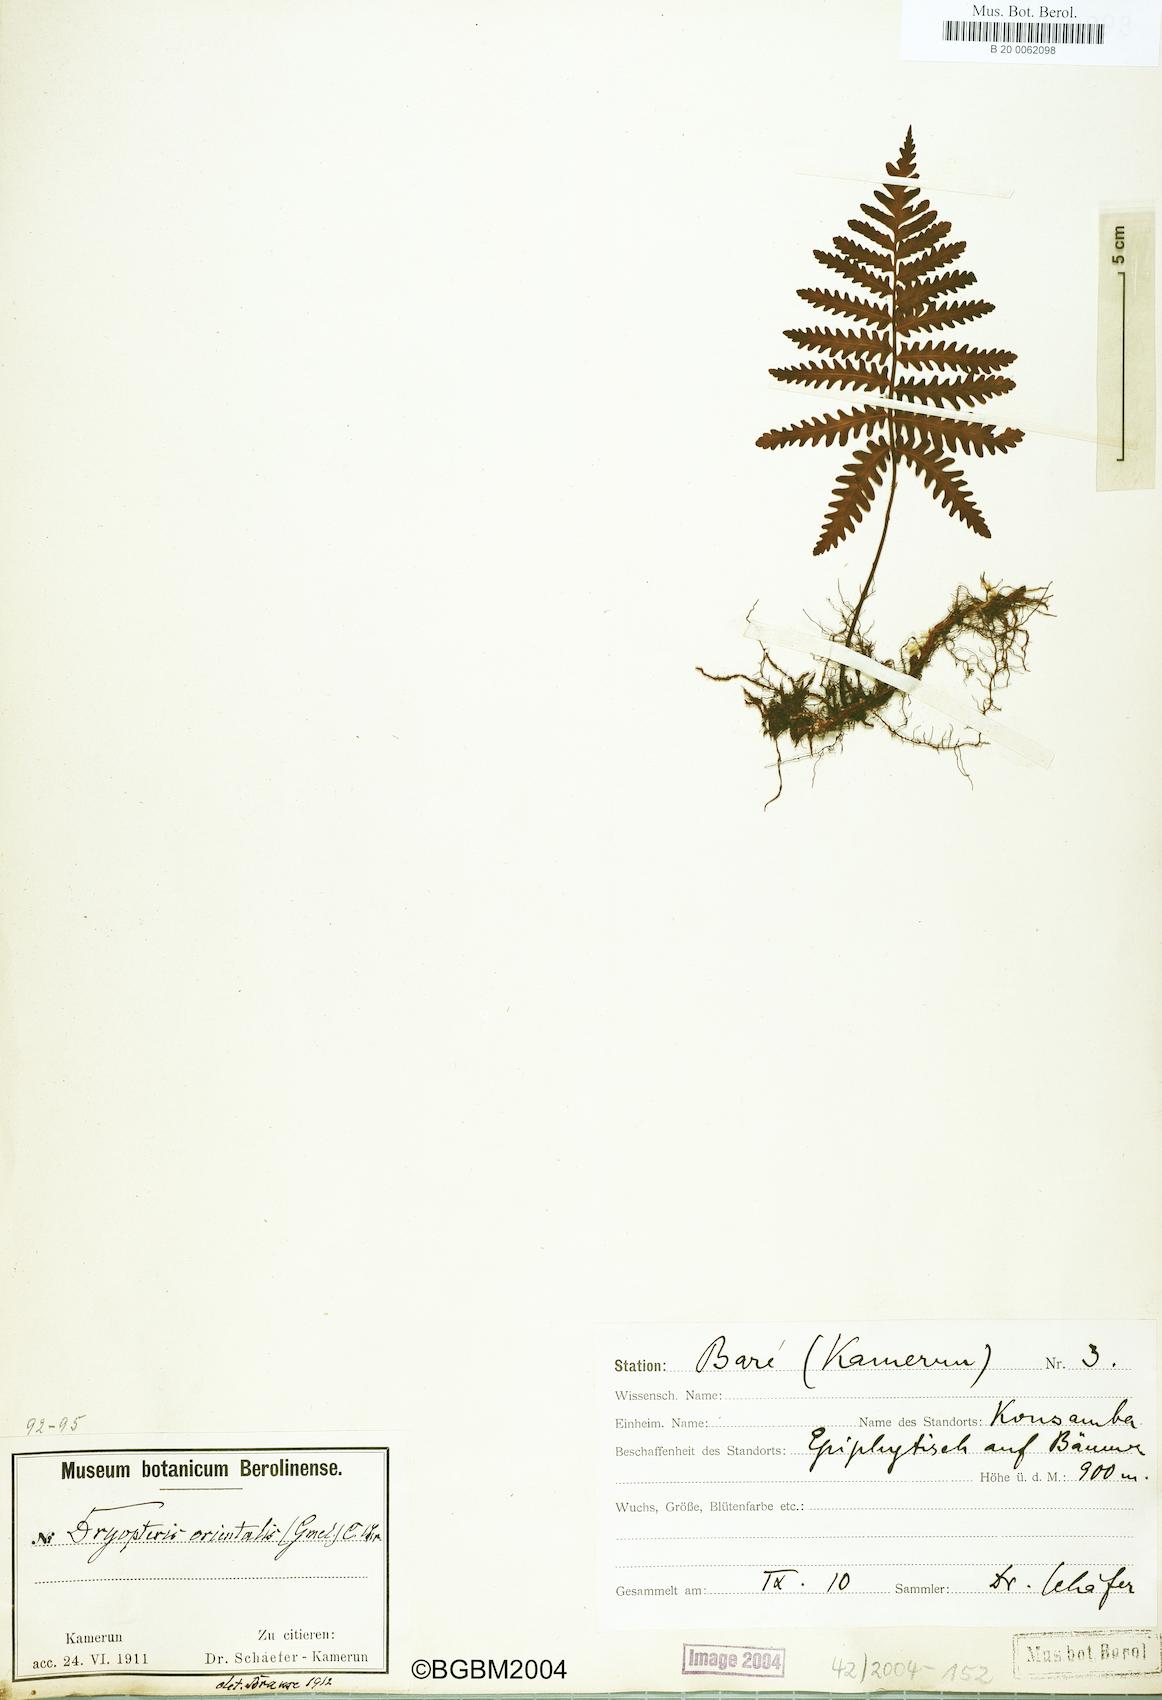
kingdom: Plantae
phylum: Tracheophyta
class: Polypodiopsida
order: Polypodiales
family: Tectariaceae
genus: Arthropteris
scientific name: Arthropteris orientalis
